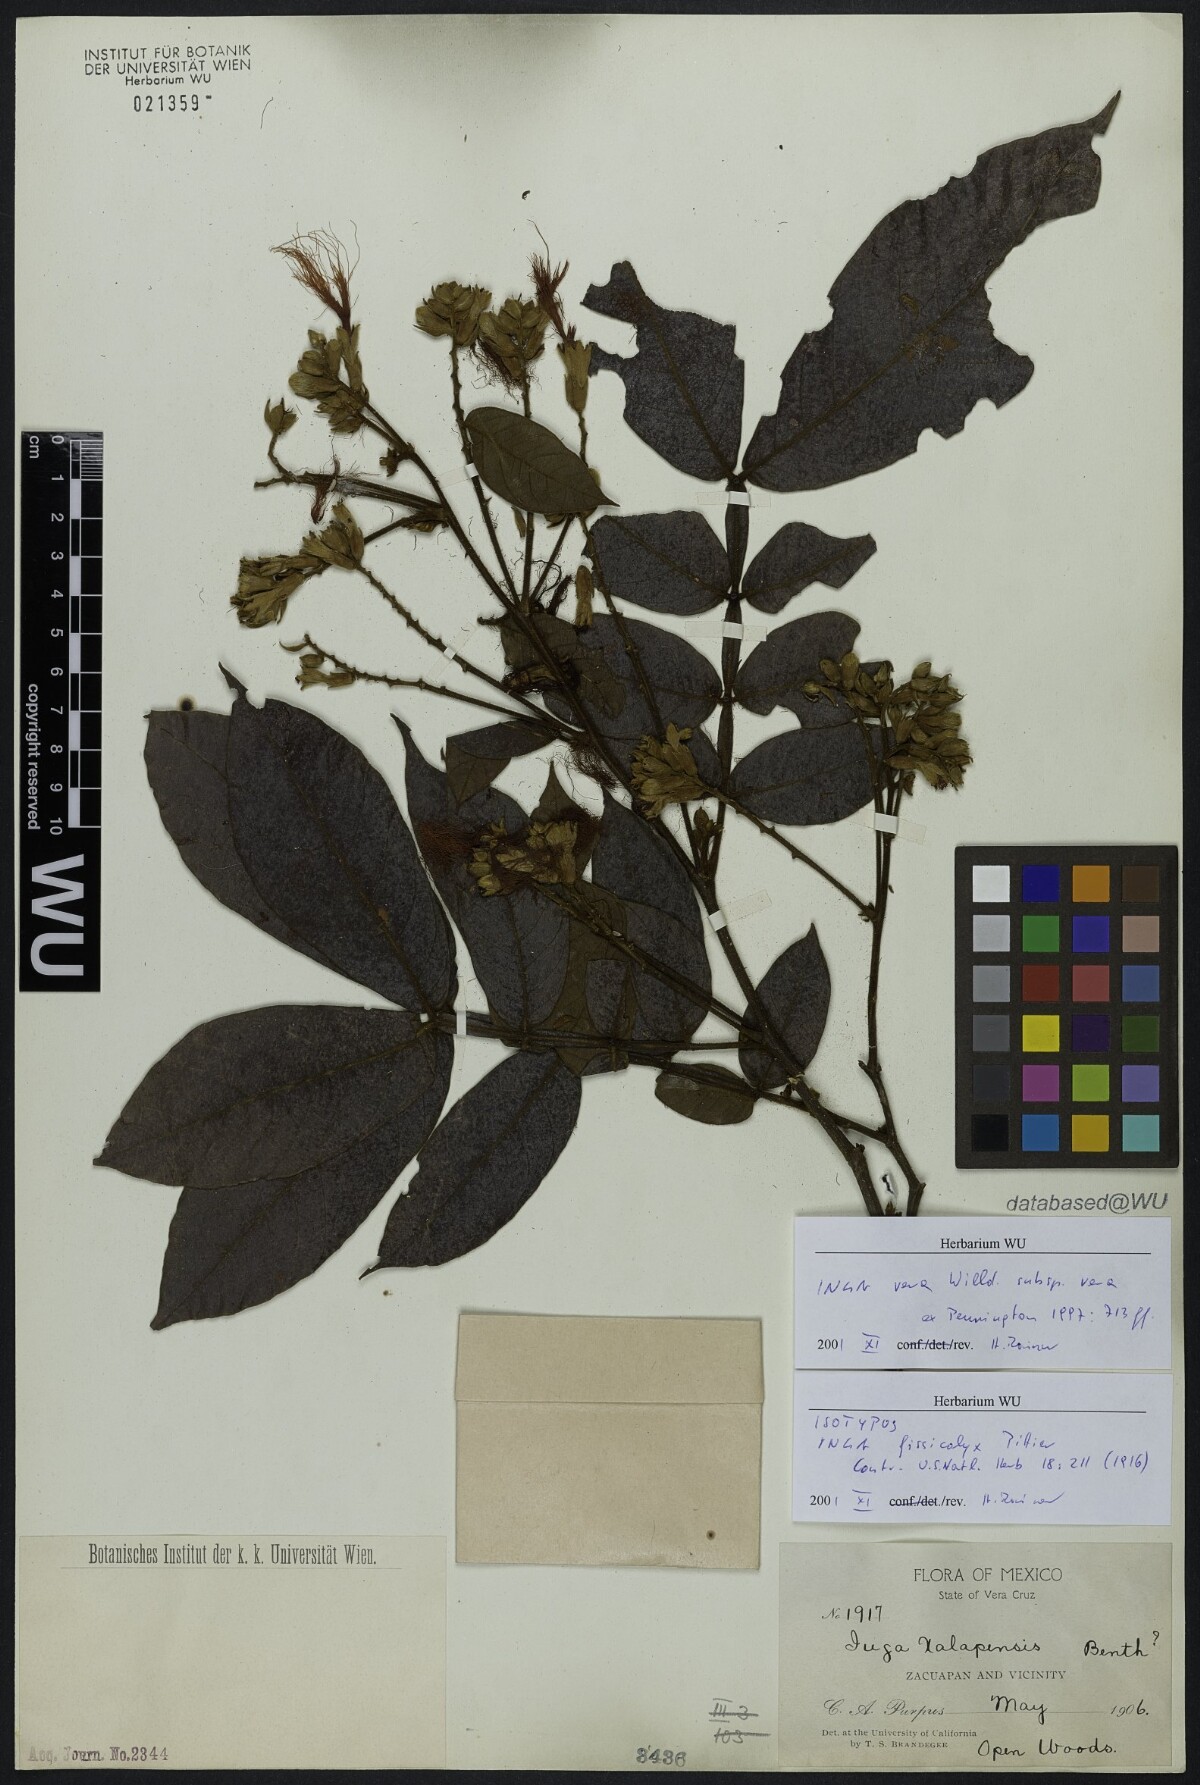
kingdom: Plantae
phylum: Tracheophyta
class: Magnoliopsida
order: Fabales
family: Fabaceae
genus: Inga
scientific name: Inga vera
